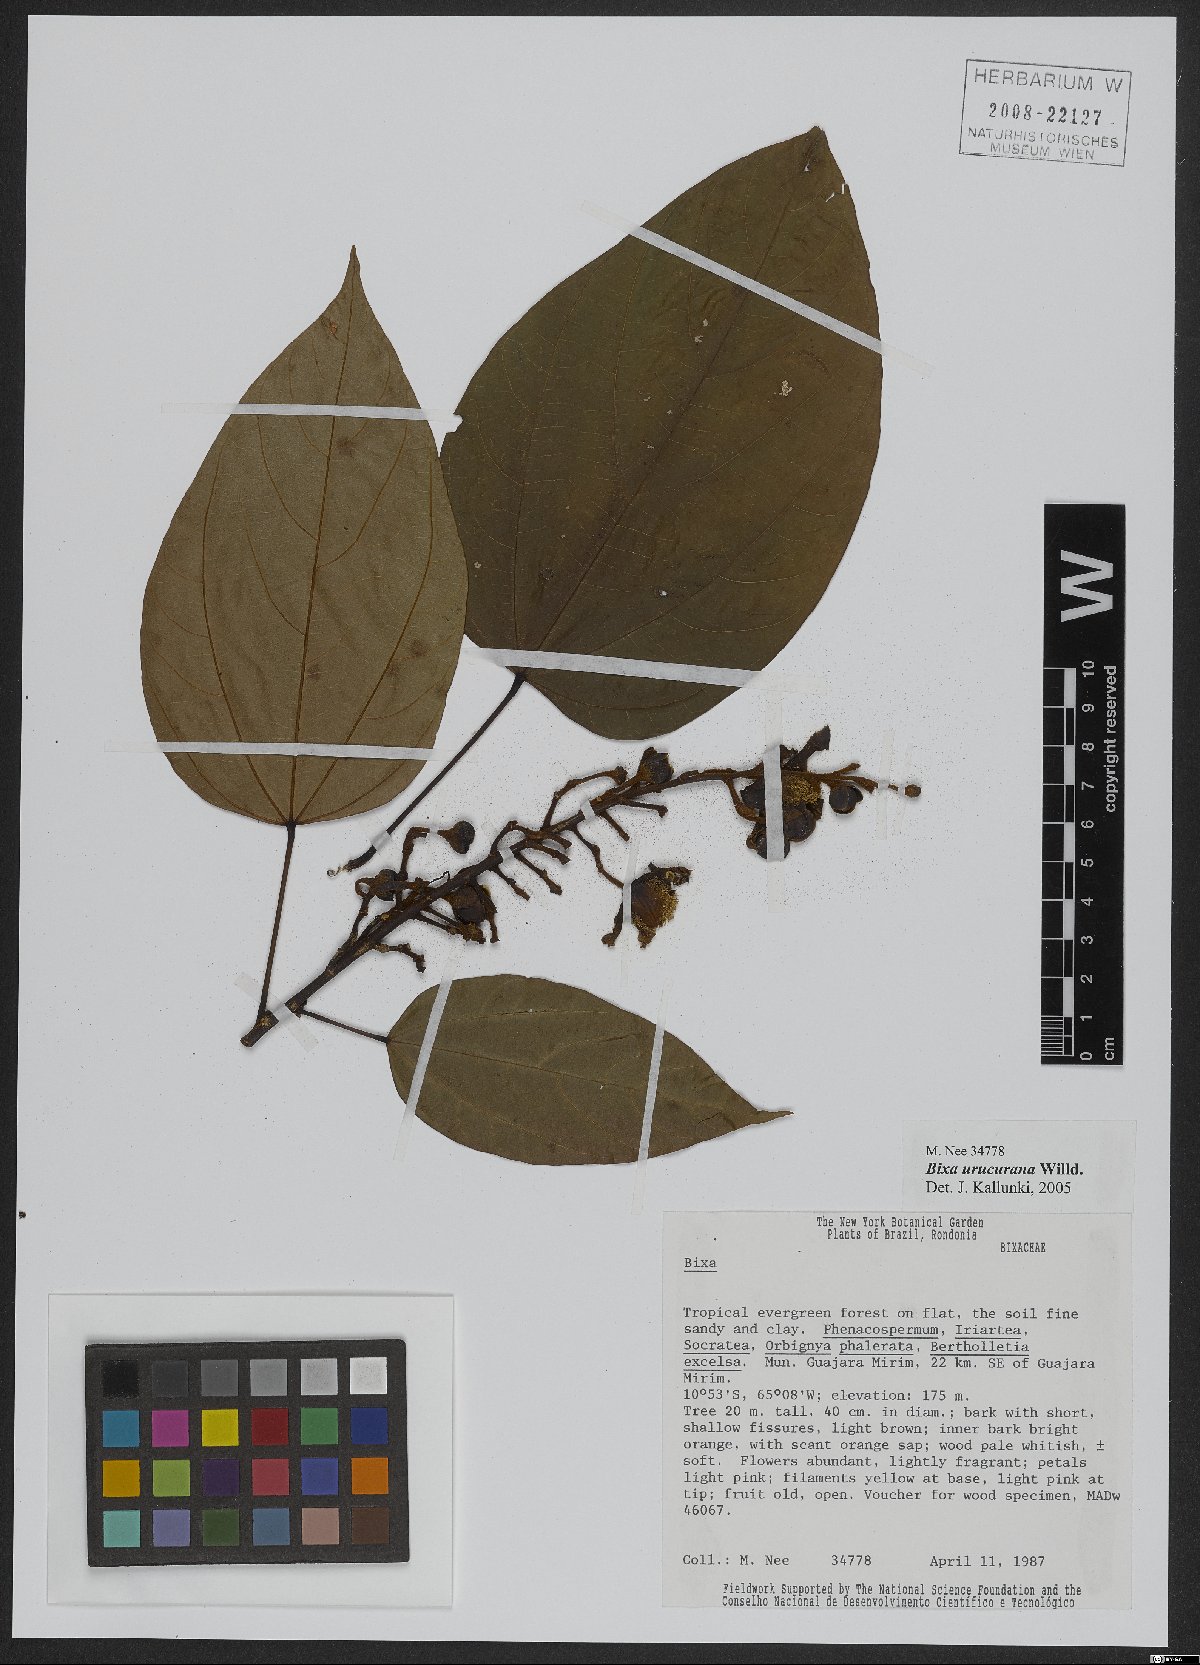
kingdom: Plantae
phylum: Tracheophyta
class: Magnoliopsida
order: Malvales
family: Bixaceae
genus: Bixa
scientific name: Bixa urucurana
